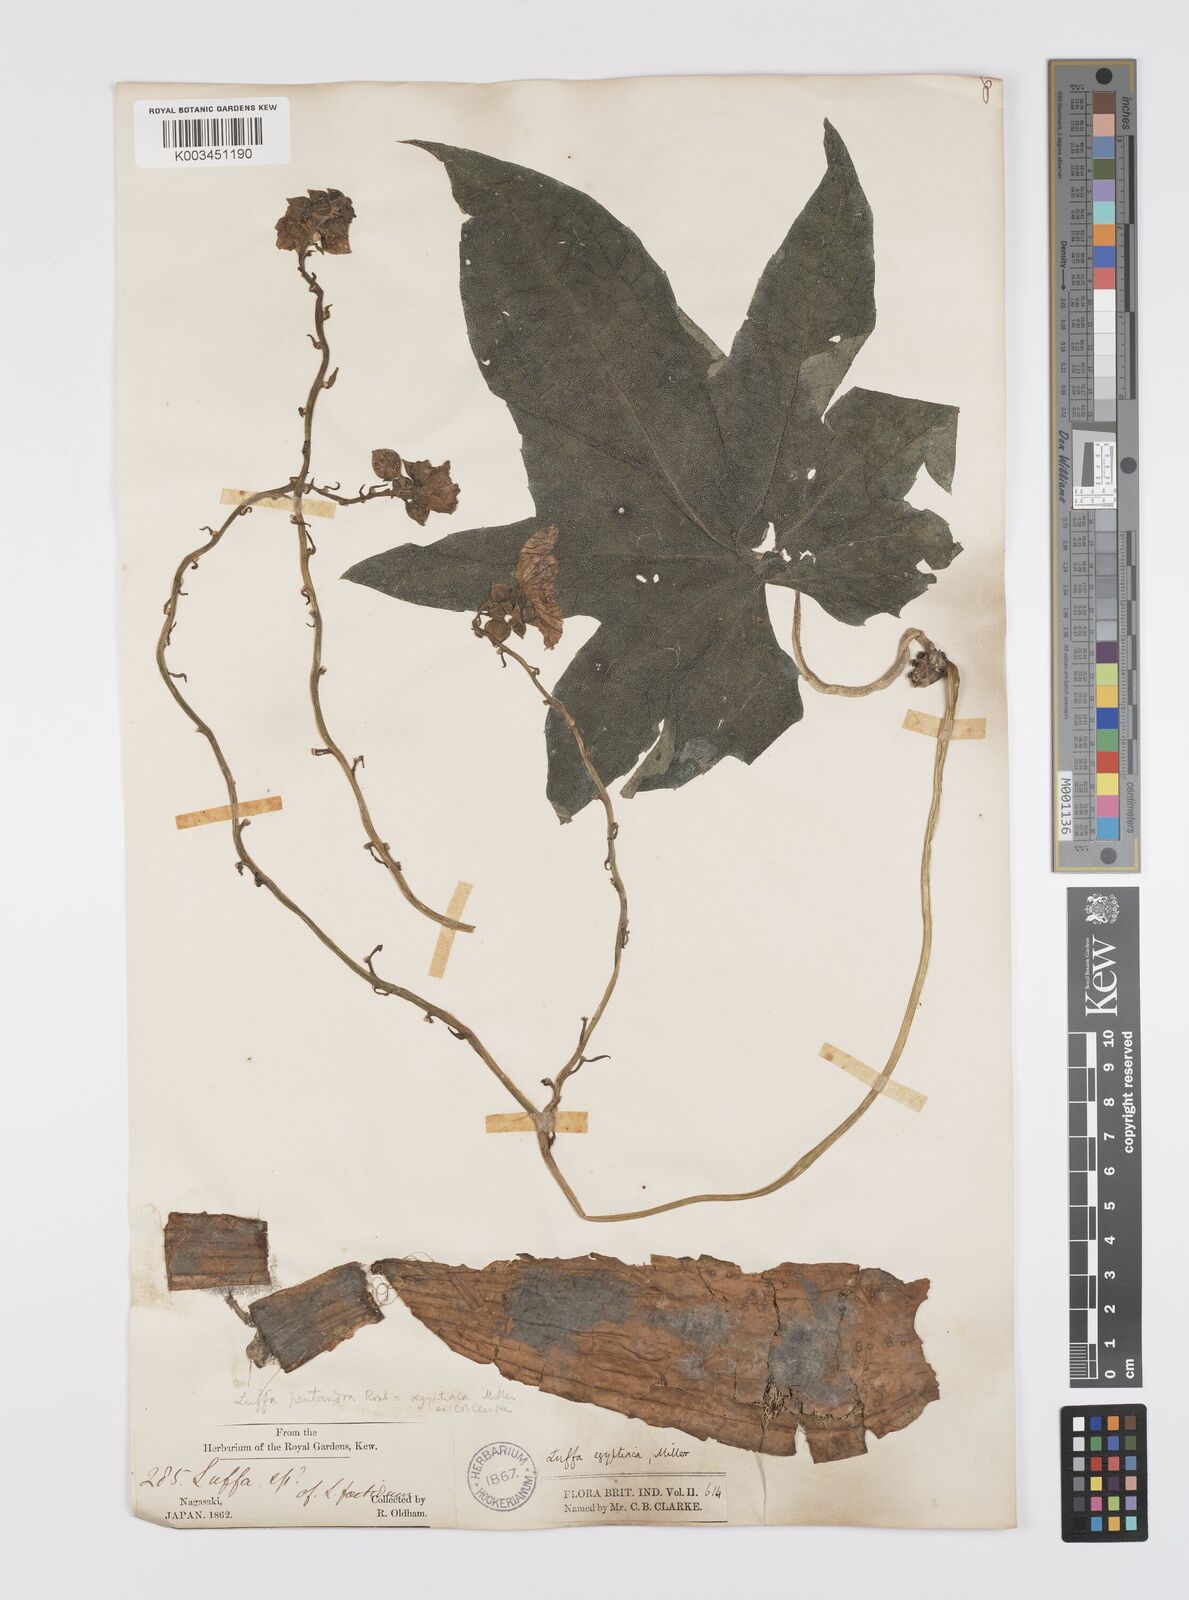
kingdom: Plantae
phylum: Tracheophyta
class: Magnoliopsida
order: Cucurbitales
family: Cucurbitaceae
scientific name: Cucurbitaceae
